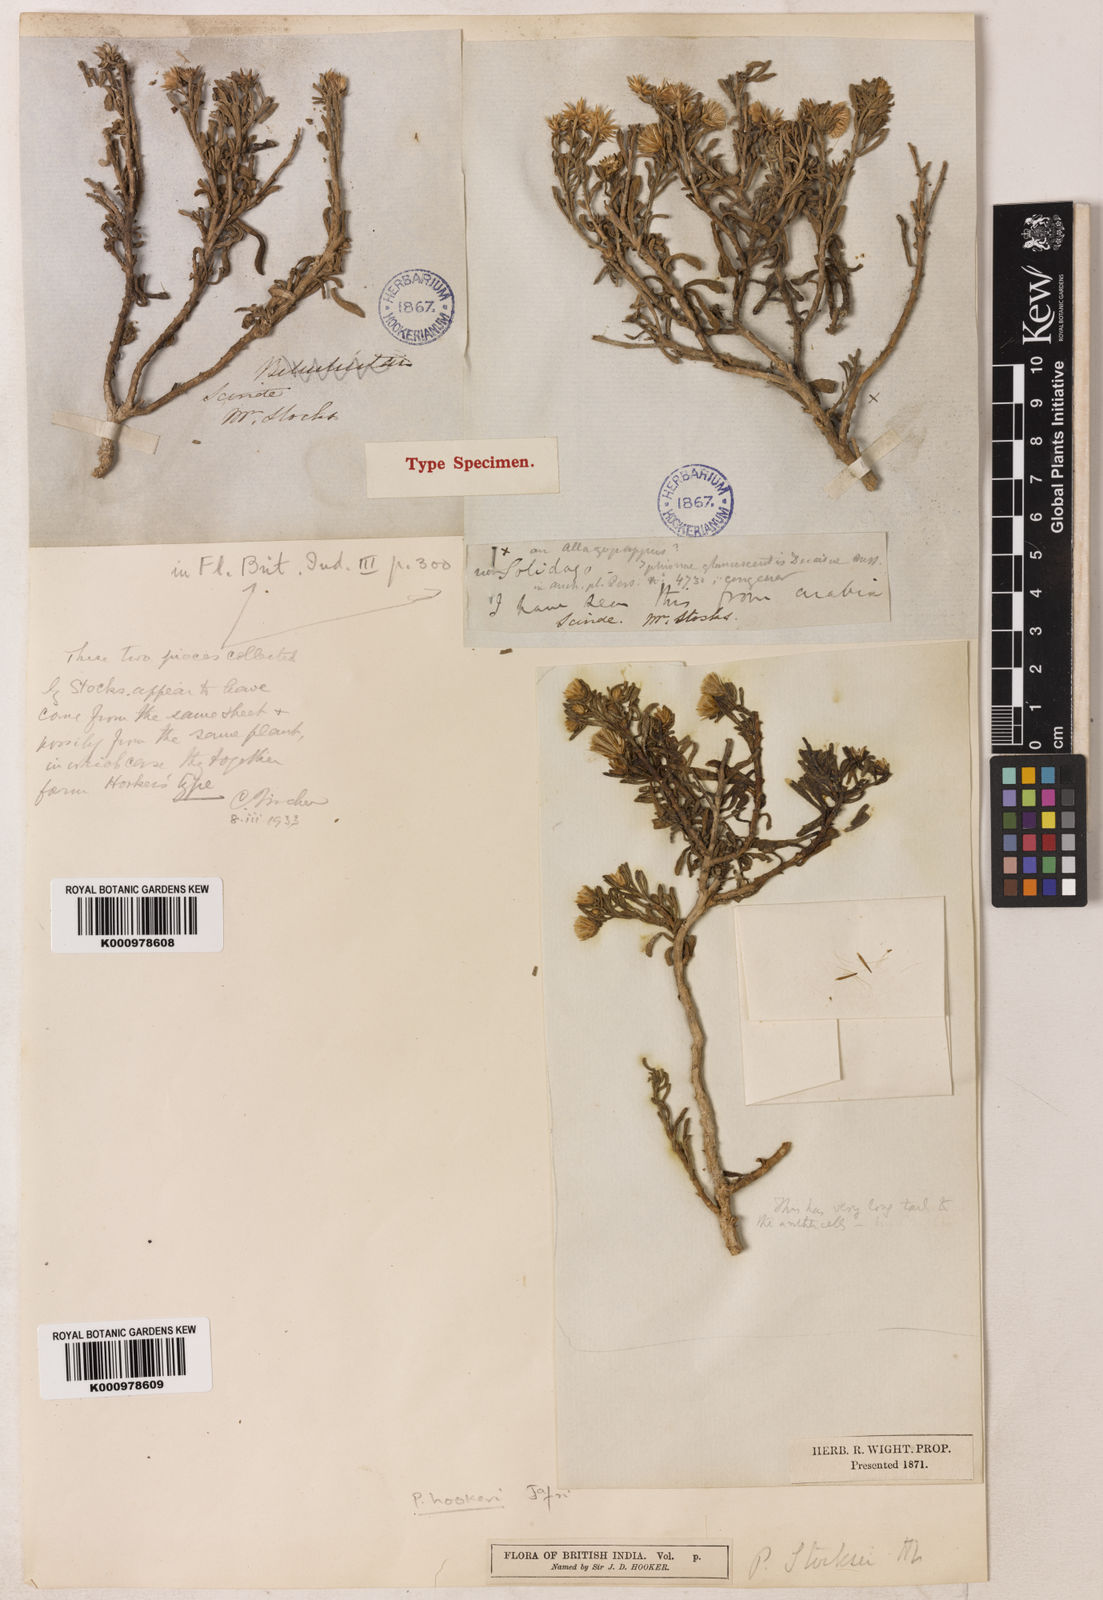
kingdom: Plantae
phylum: Tracheophyta
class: Magnoliopsida
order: Asterales
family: Asteraceae
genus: Pulicaria
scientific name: Pulicaria carnosa
